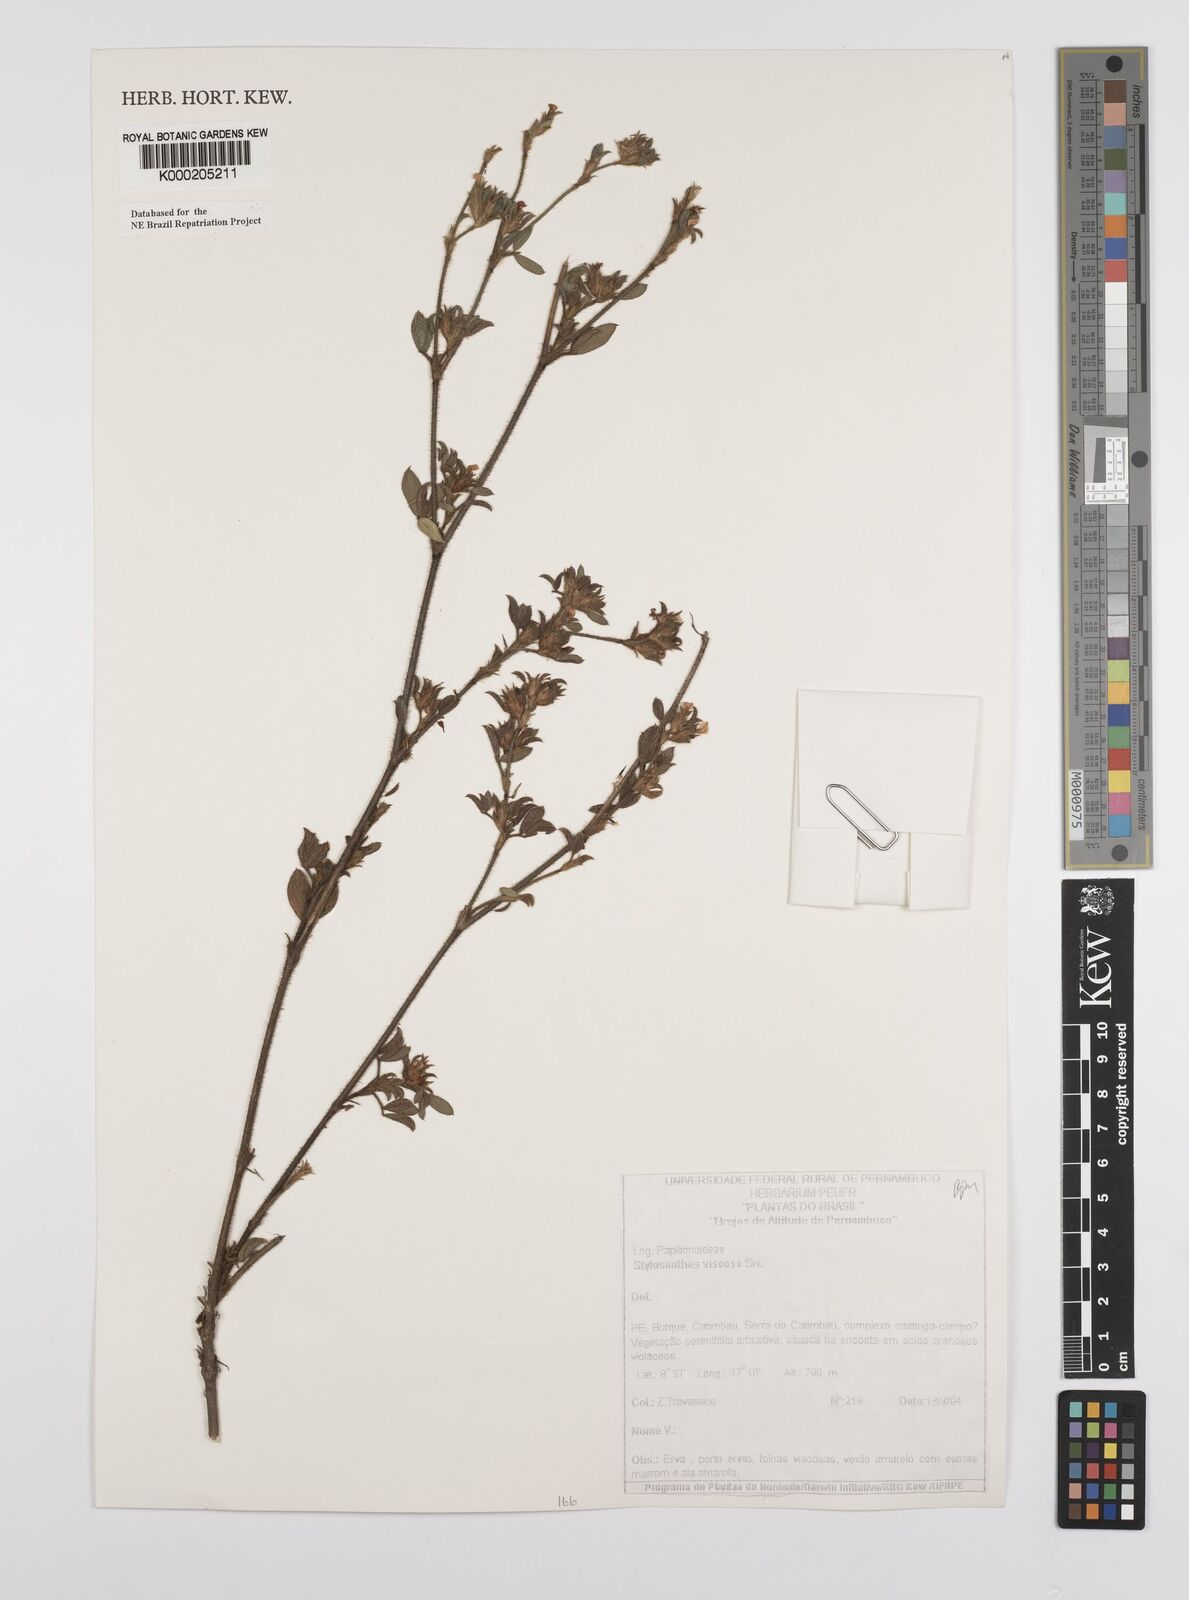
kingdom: Plantae
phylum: Tracheophyta
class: Magnoliopsida
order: Fabales
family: Fabaceae
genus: Stylosanthes
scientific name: Stylosanthes viscosa
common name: Viscid pencil-flower
